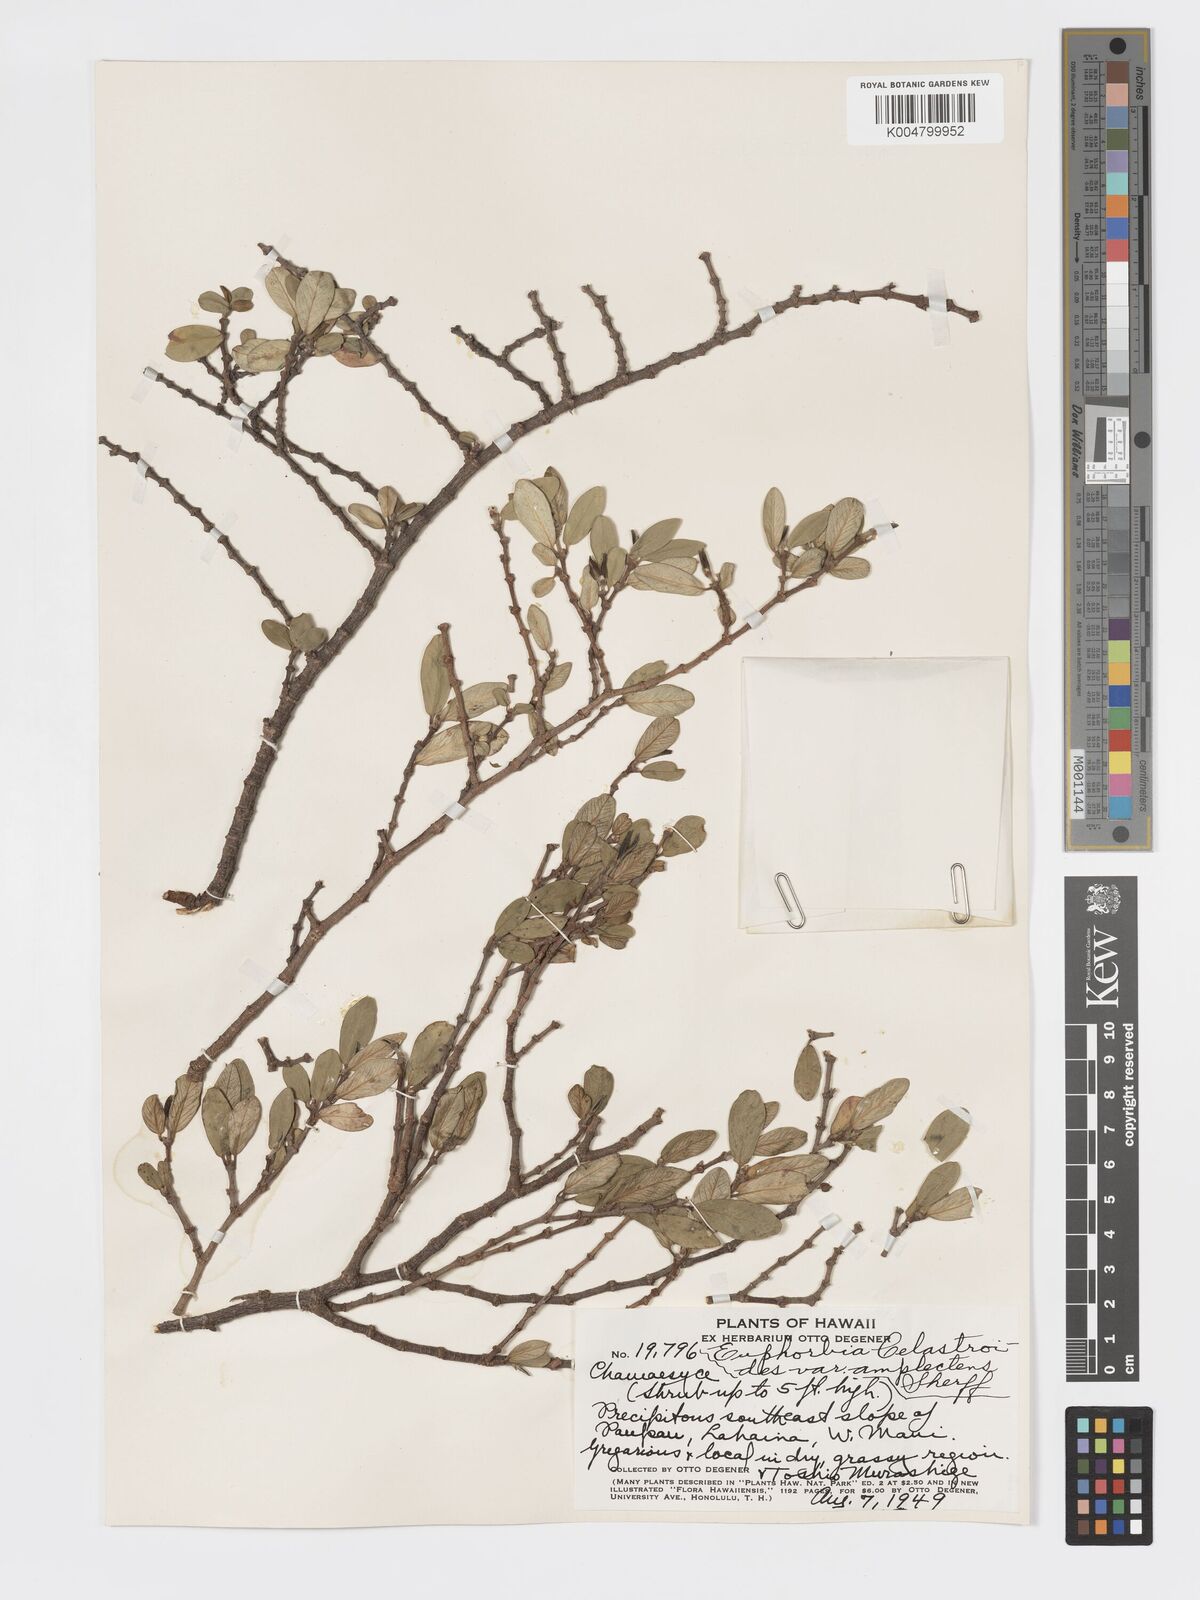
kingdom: Plantae
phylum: Tracheophyta
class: Magnoliopsida
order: Malpighiales
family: Euphorbiaceae
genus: Euphorbia
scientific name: Euphorbia celastroides
